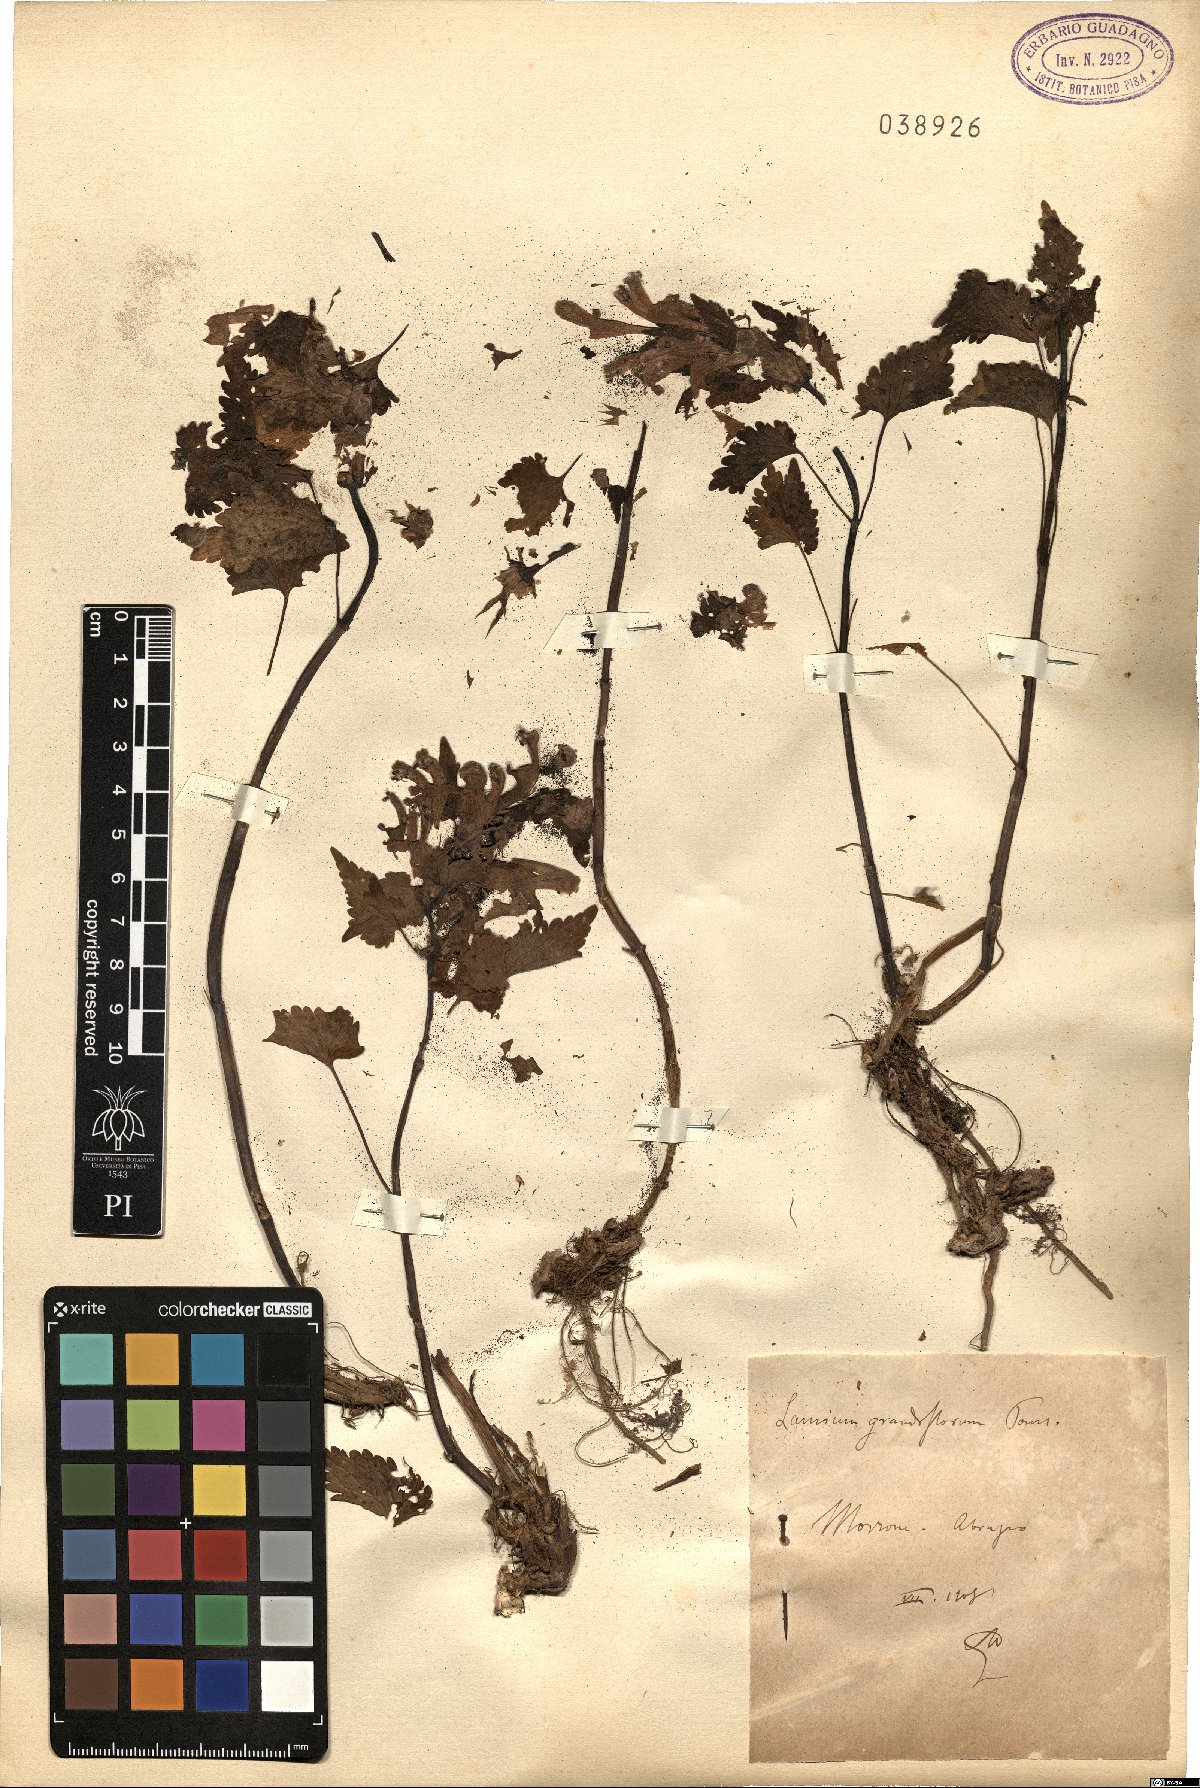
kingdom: Plantae
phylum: Tracheophyta
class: Magnoliopsida
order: Lamiales
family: Lamiaceae
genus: Lamium
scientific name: Lamium garganicum
